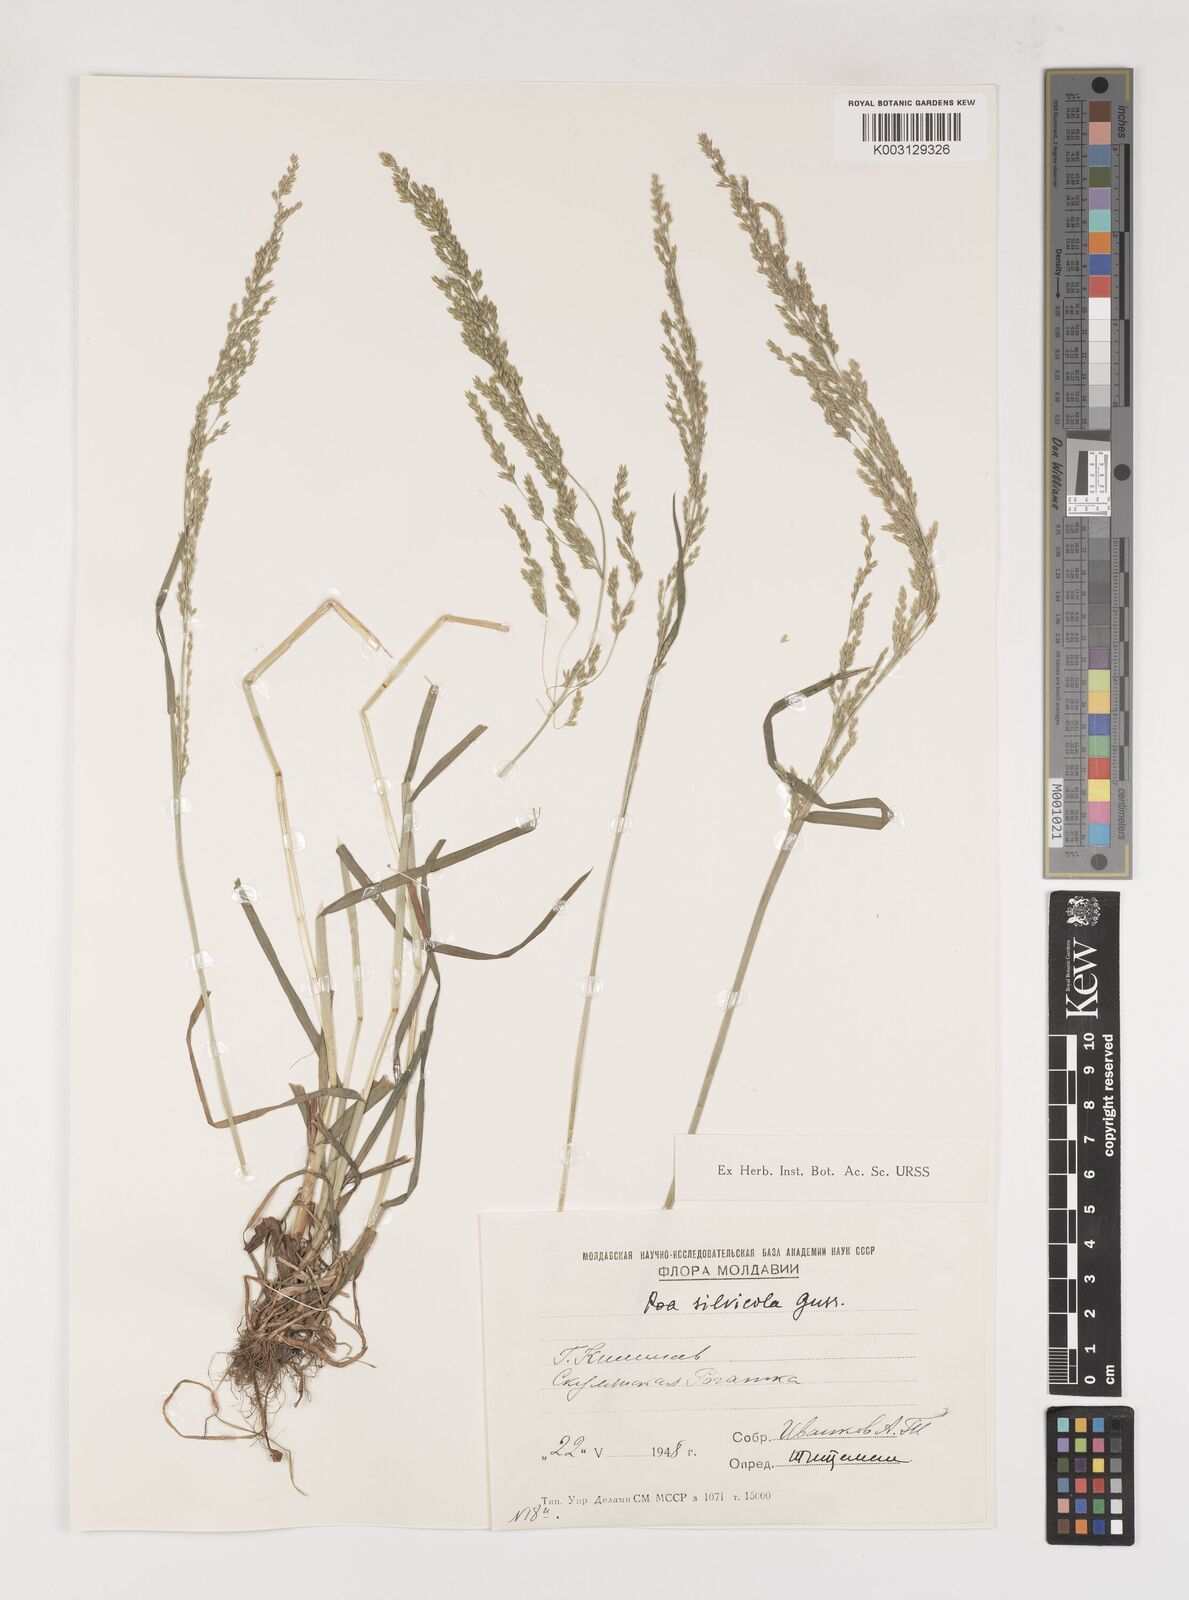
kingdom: Plantae
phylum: Tracheophyta
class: Liliopsida
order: Poales
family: Poaceae
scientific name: Poaceae
